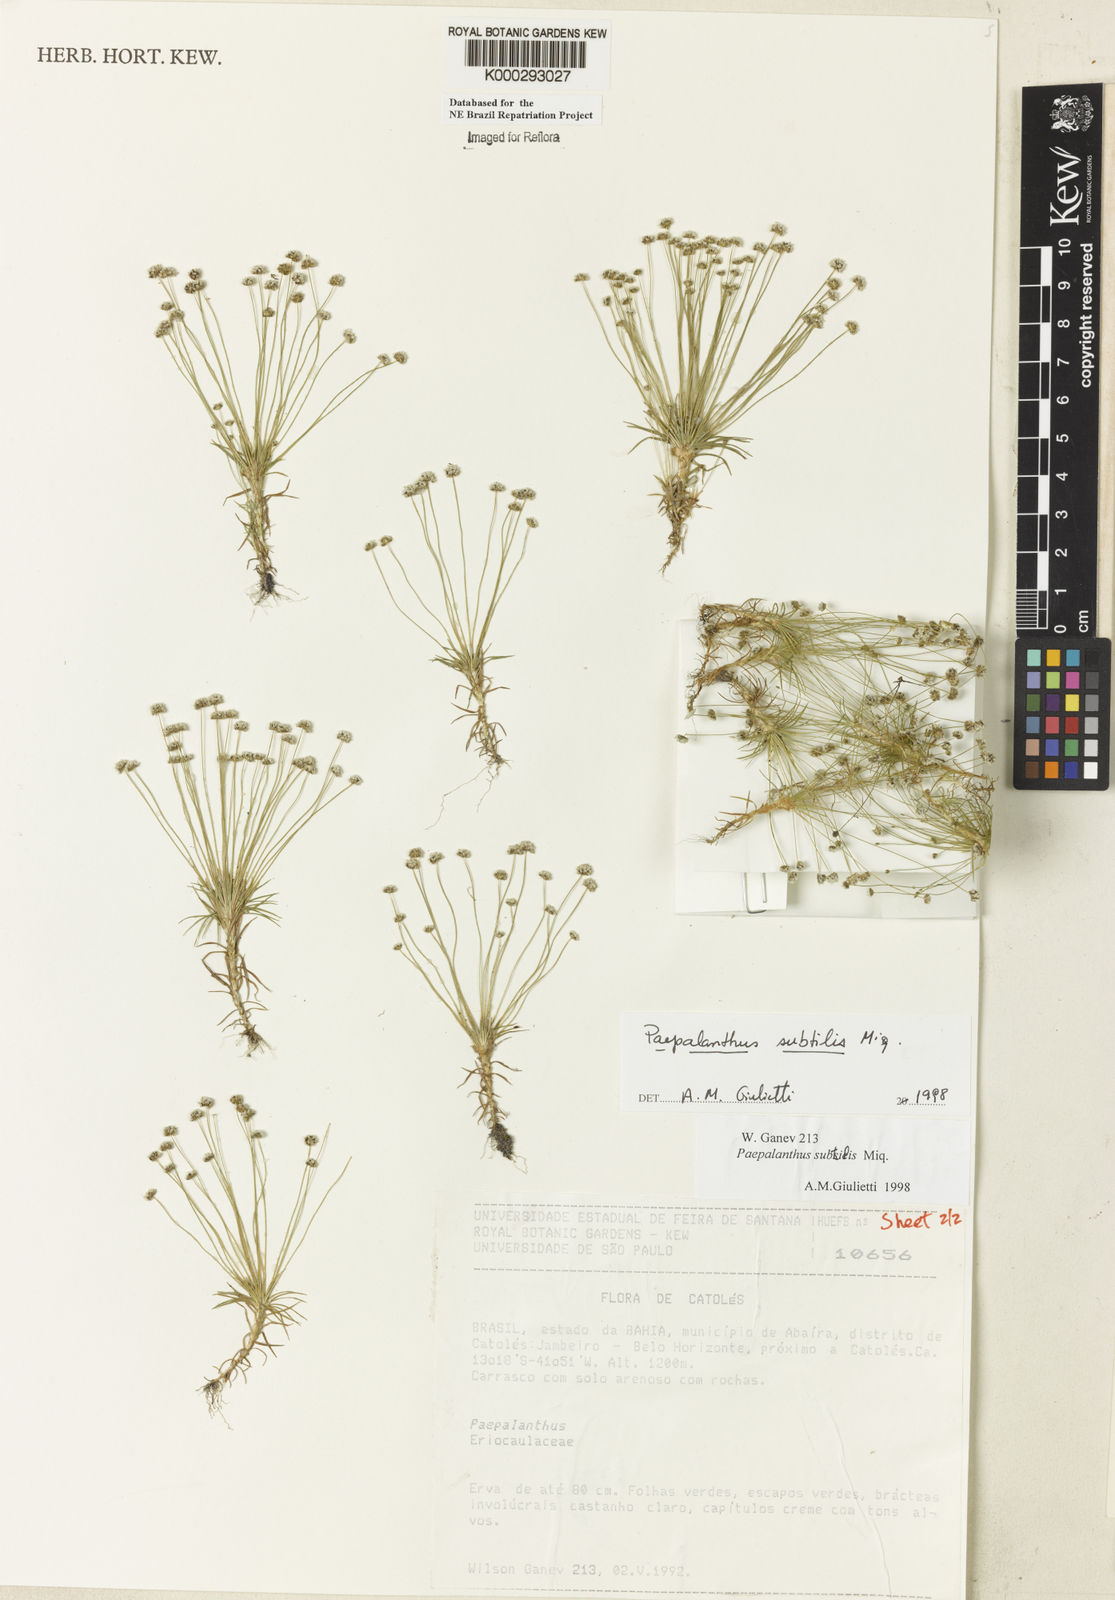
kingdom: Plantae
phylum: Tracheophyta
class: Liliopsida
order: Poales
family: Eriocaulaceae
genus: Paepalanthus
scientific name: Paepalanthus subtilis
